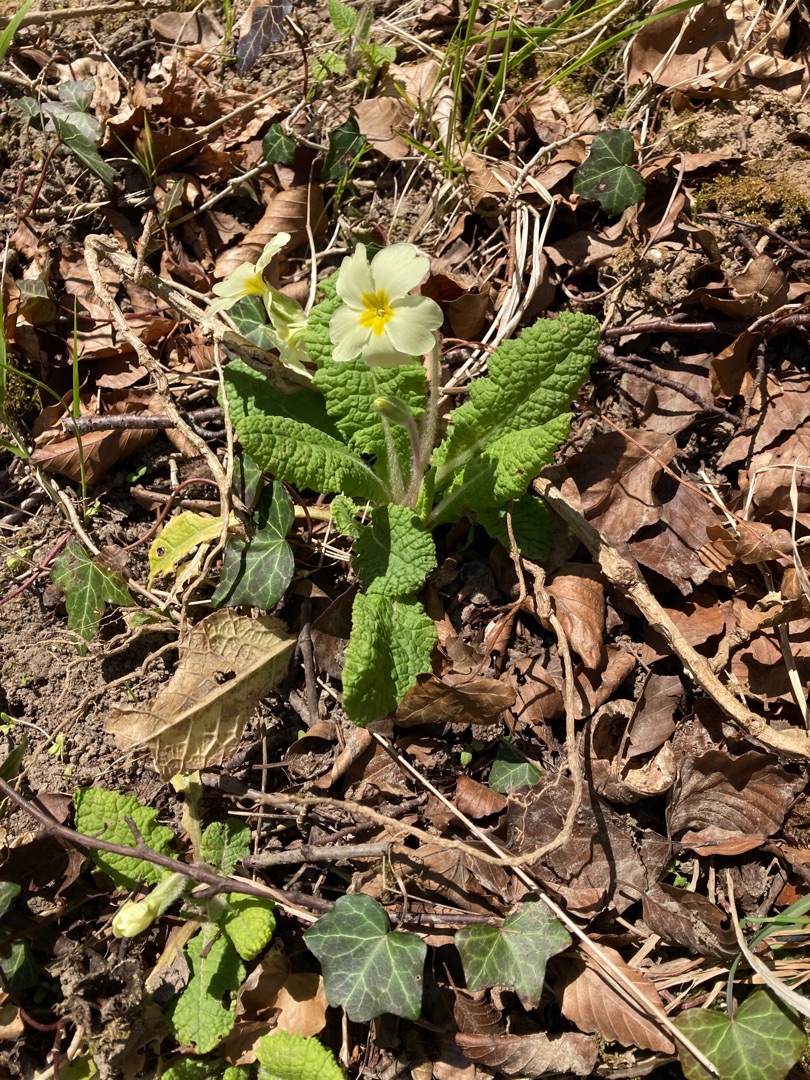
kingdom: Plantae
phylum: Tracheophyta
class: Magnoliopsida
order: Ericales
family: Primulaceae
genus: Primula
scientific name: Primula vulgaris
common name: Storblomstret kodriver
